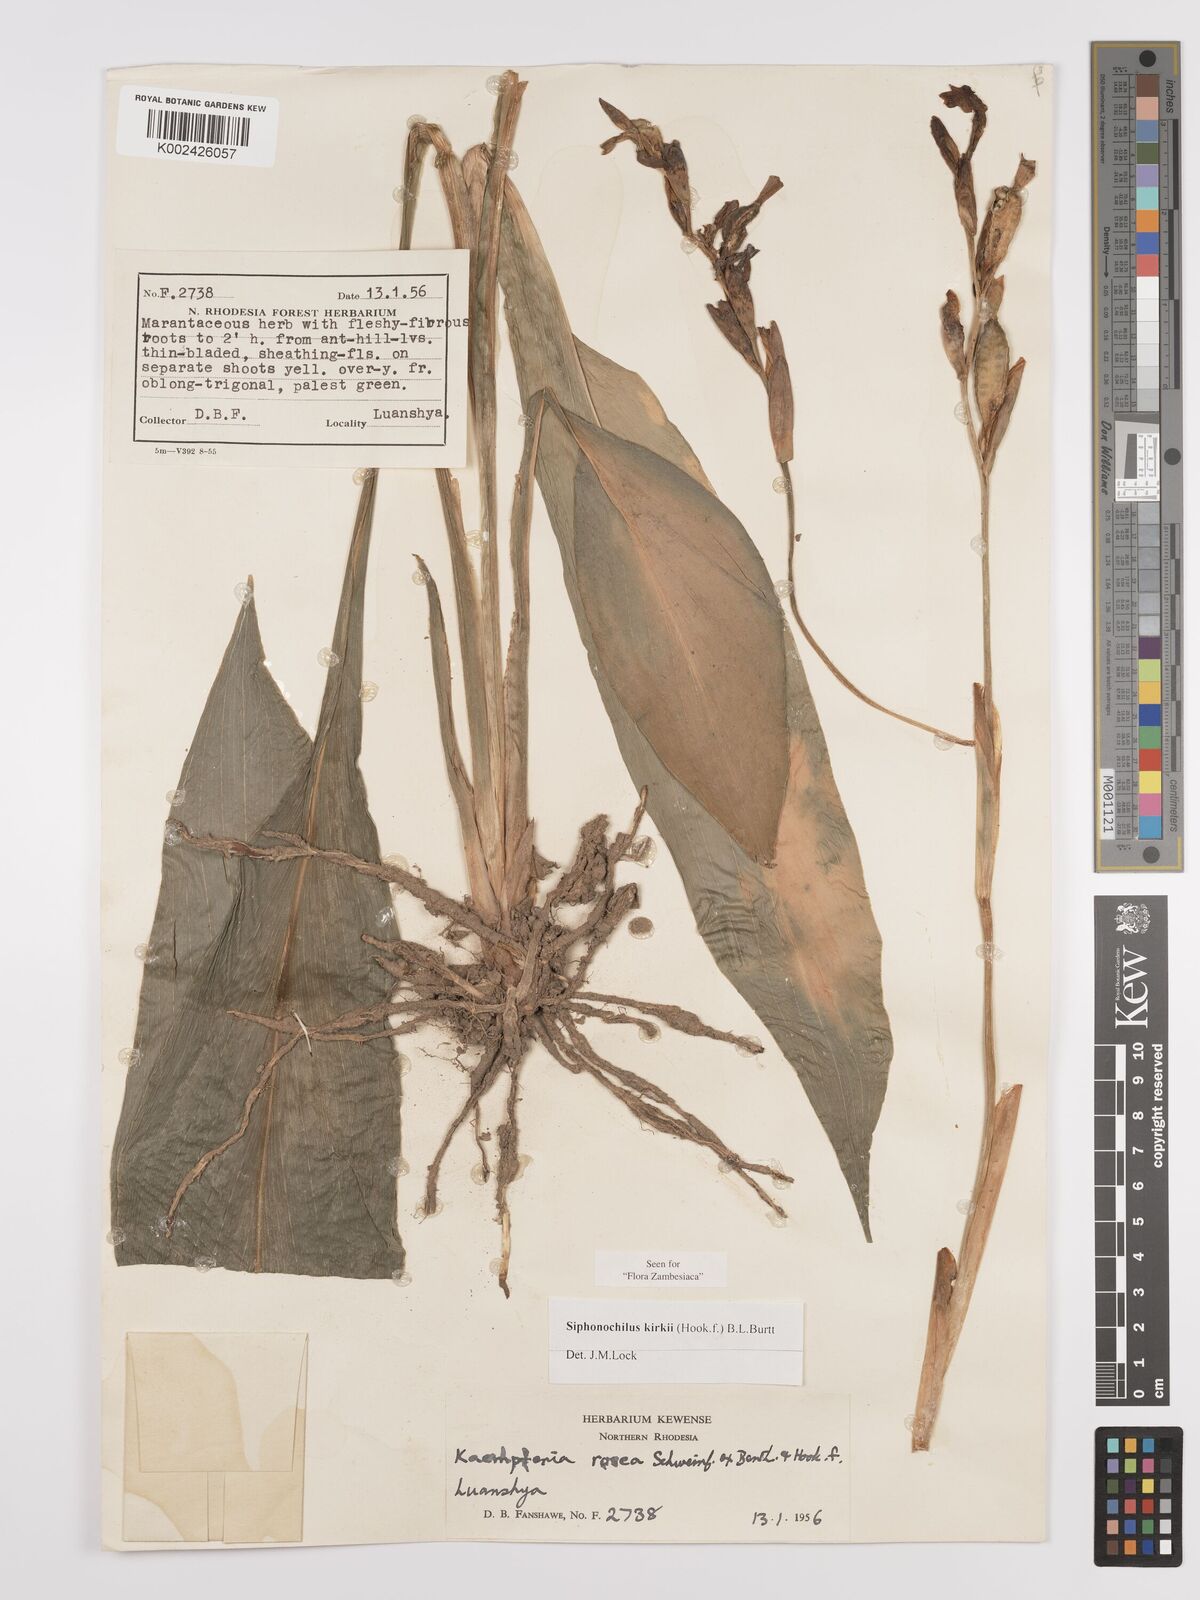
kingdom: Plantae
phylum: Tracheophyta
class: Liliopsida
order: Zingiberales
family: Zingiberaceae
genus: Siphonochilus
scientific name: Siphonochilus kirkii
